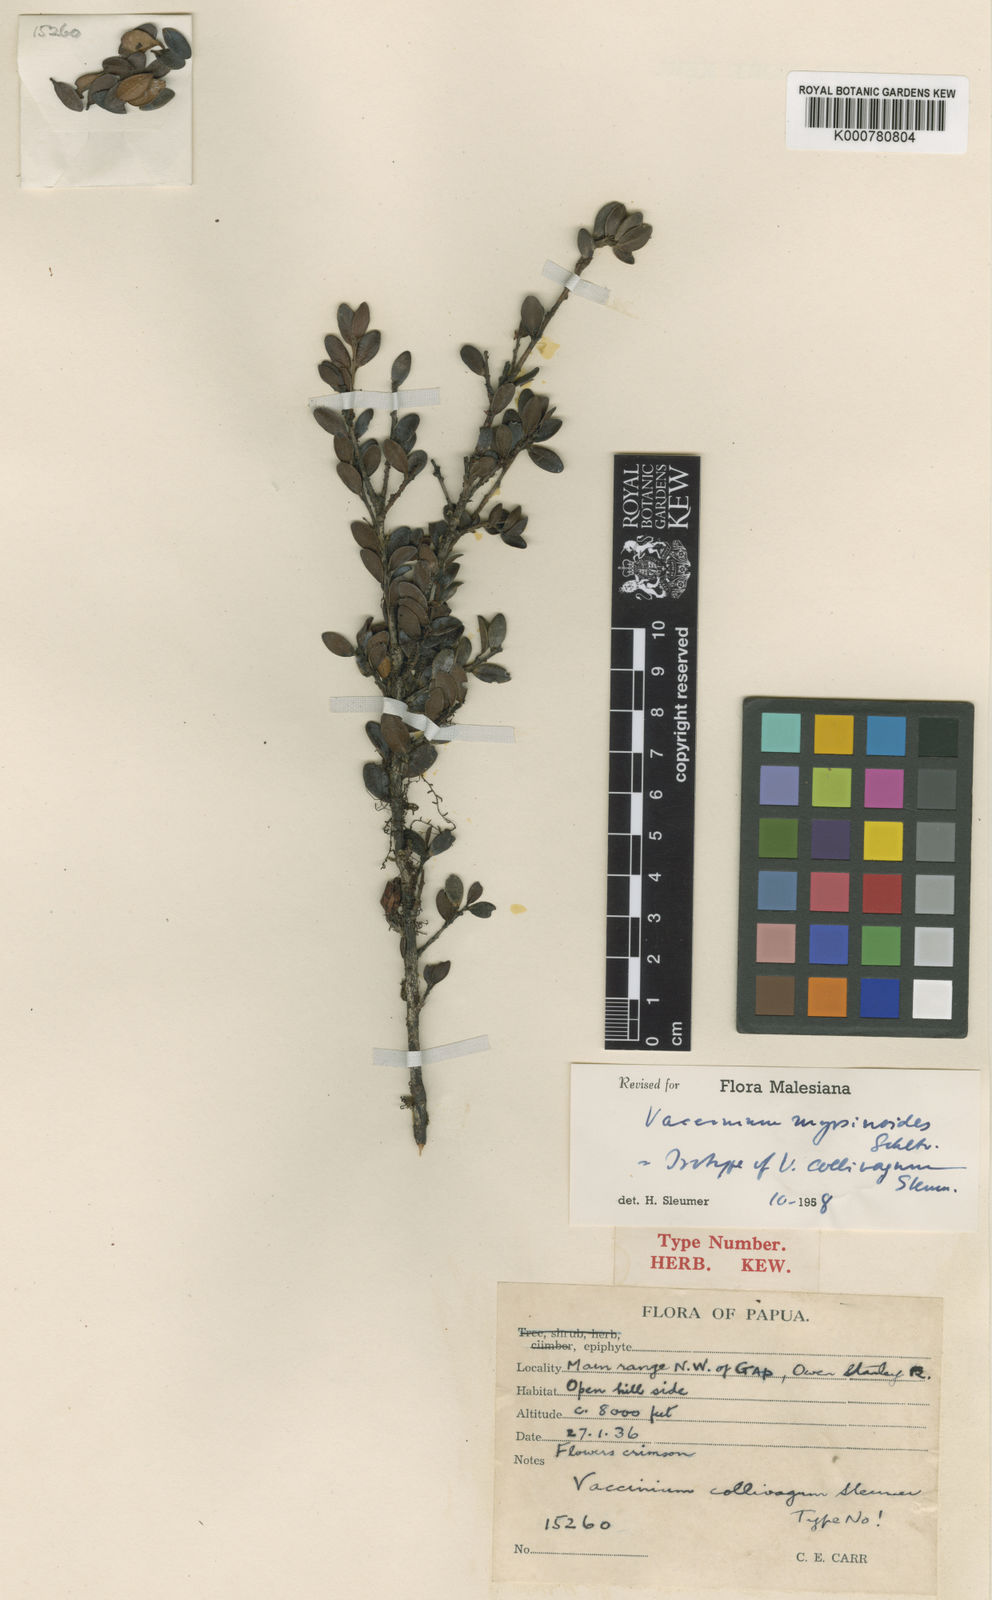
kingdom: Plantae
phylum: Tracheophyta
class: Magnoliopsida
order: Ericales
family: Ericaceae
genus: Vaccinium
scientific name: Vaccinium myrsinoides
